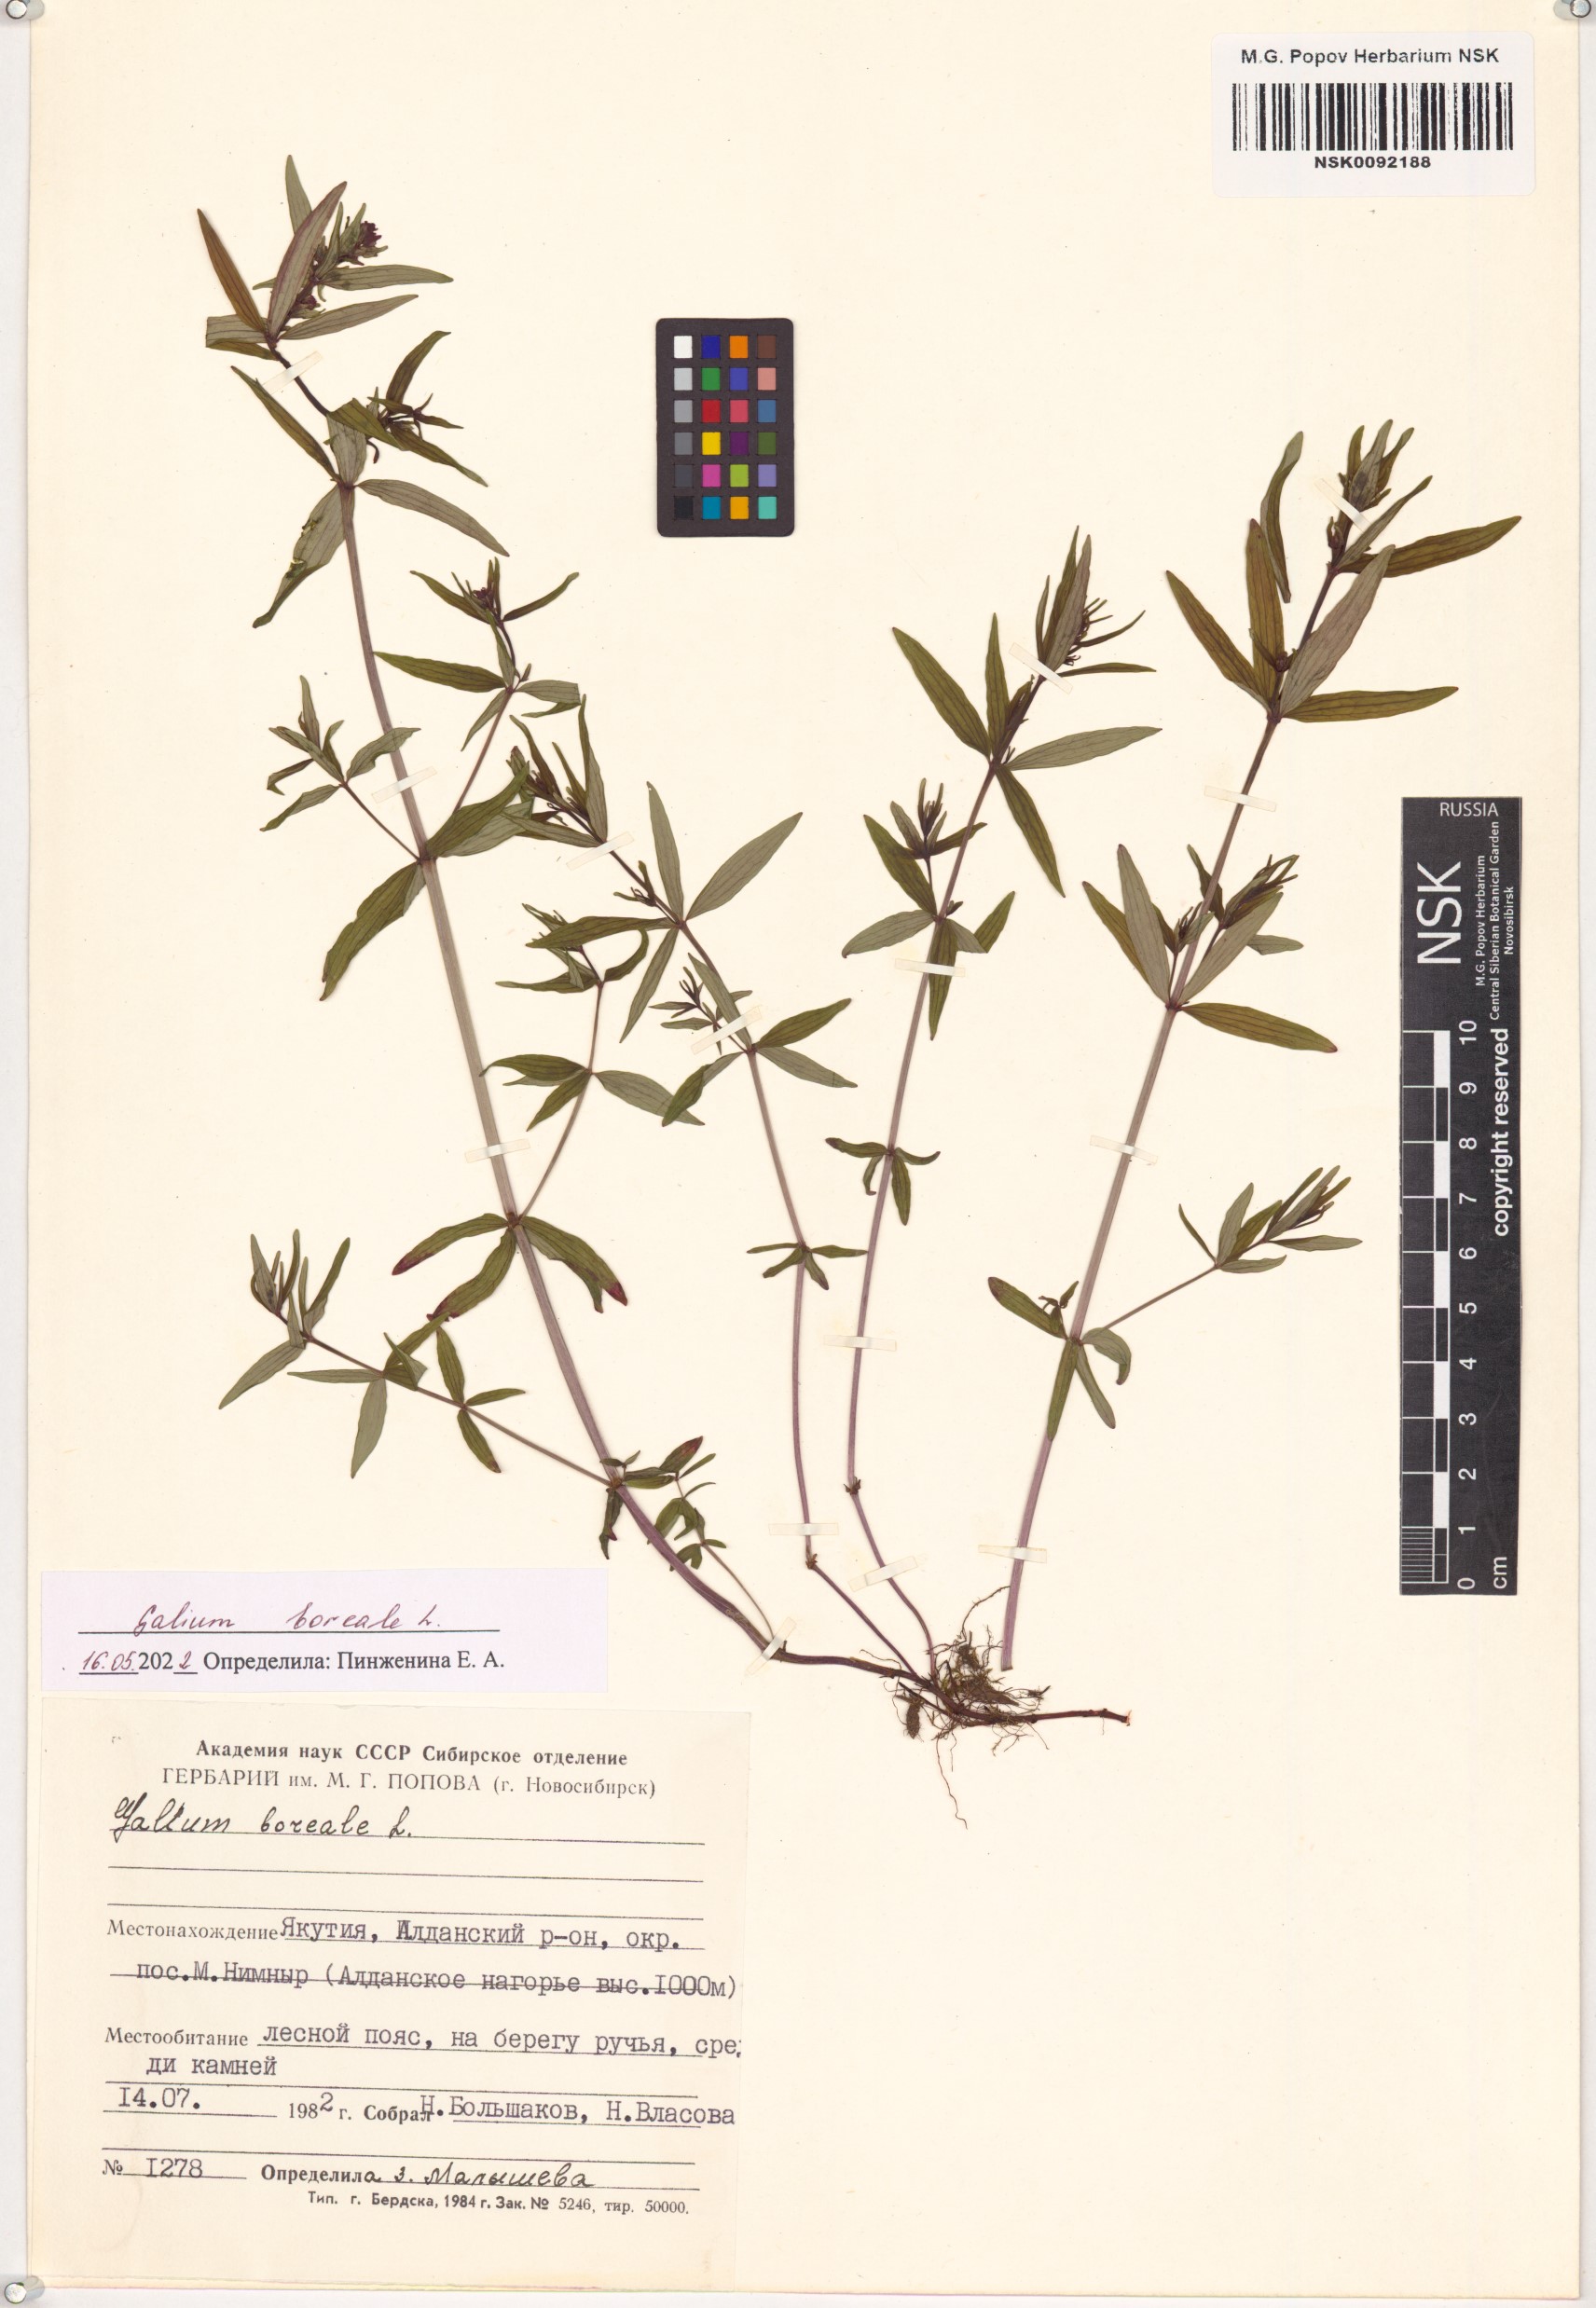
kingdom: Plantae
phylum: Tracheophyta
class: Magnoliopsida
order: Gentianales
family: Rubiaceae
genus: Galium
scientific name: Galium boreale
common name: Northern bedstraw
